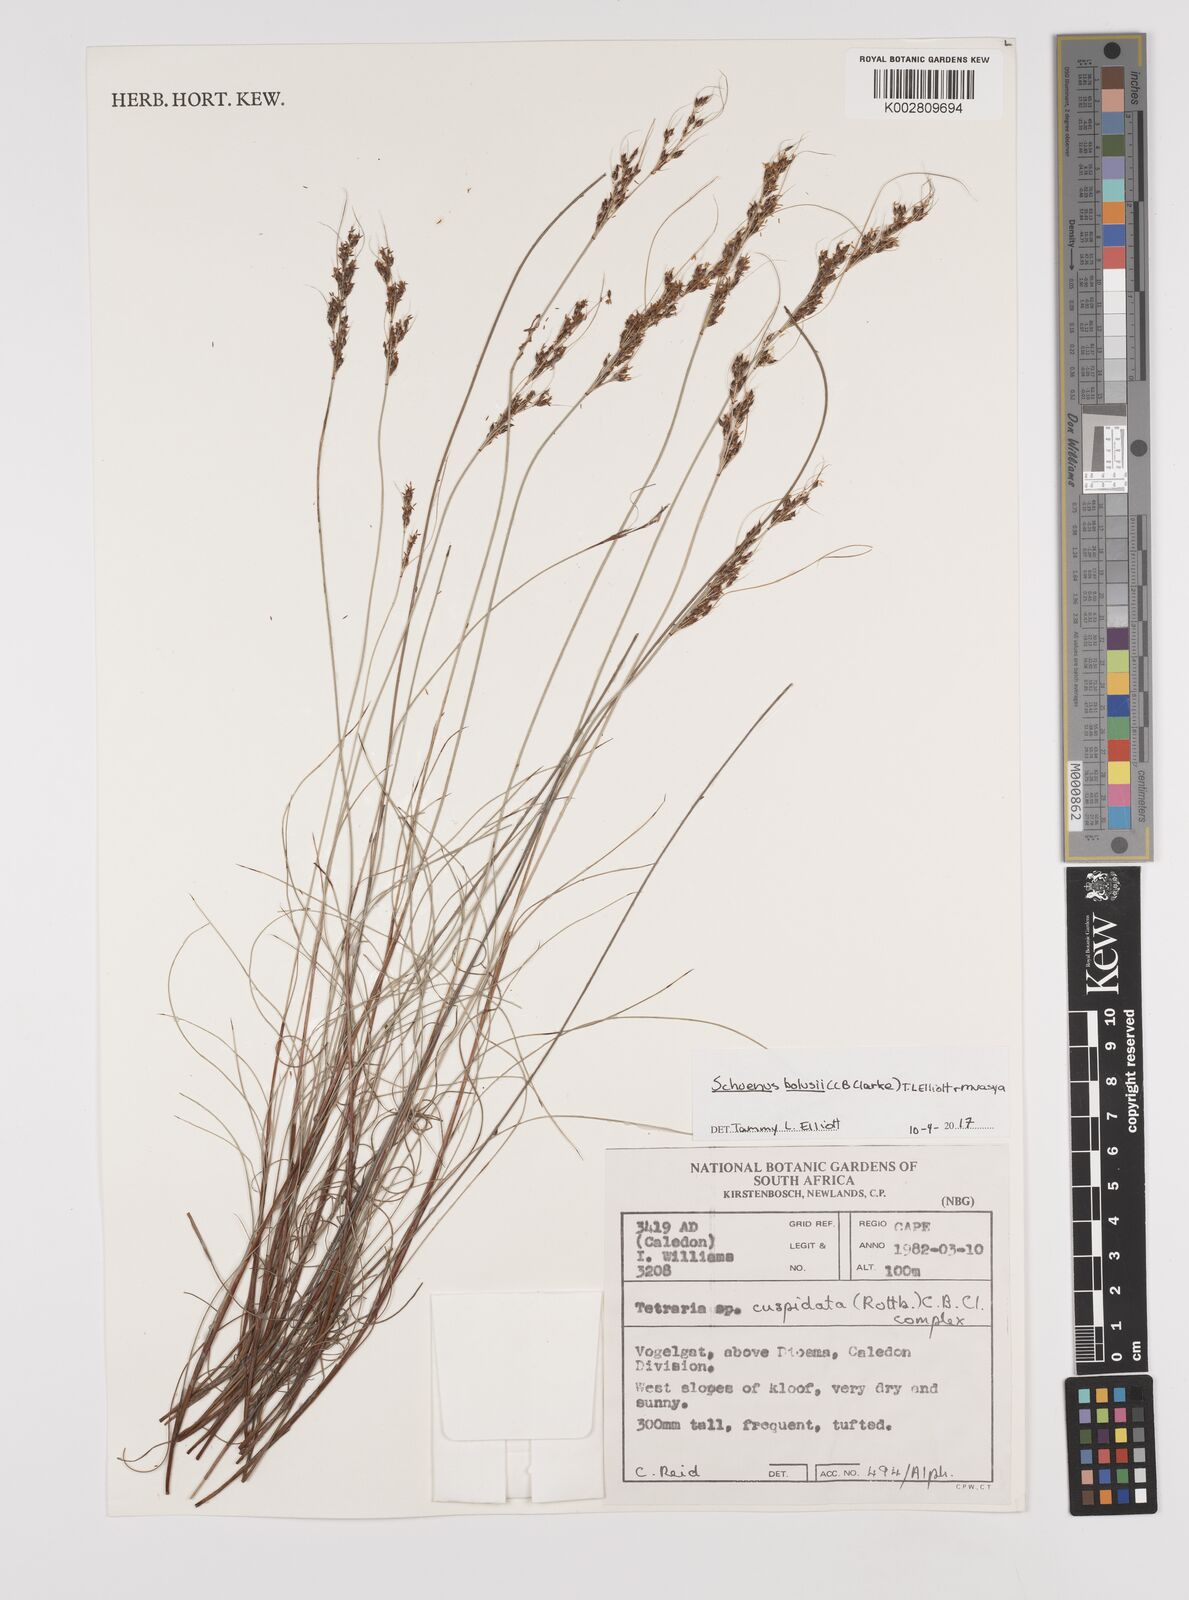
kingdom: Plantae
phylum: Tracheophyta
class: Liliopsida
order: Poales
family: Cyperaceae
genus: Schoenus
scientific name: Schoenus bolusii
